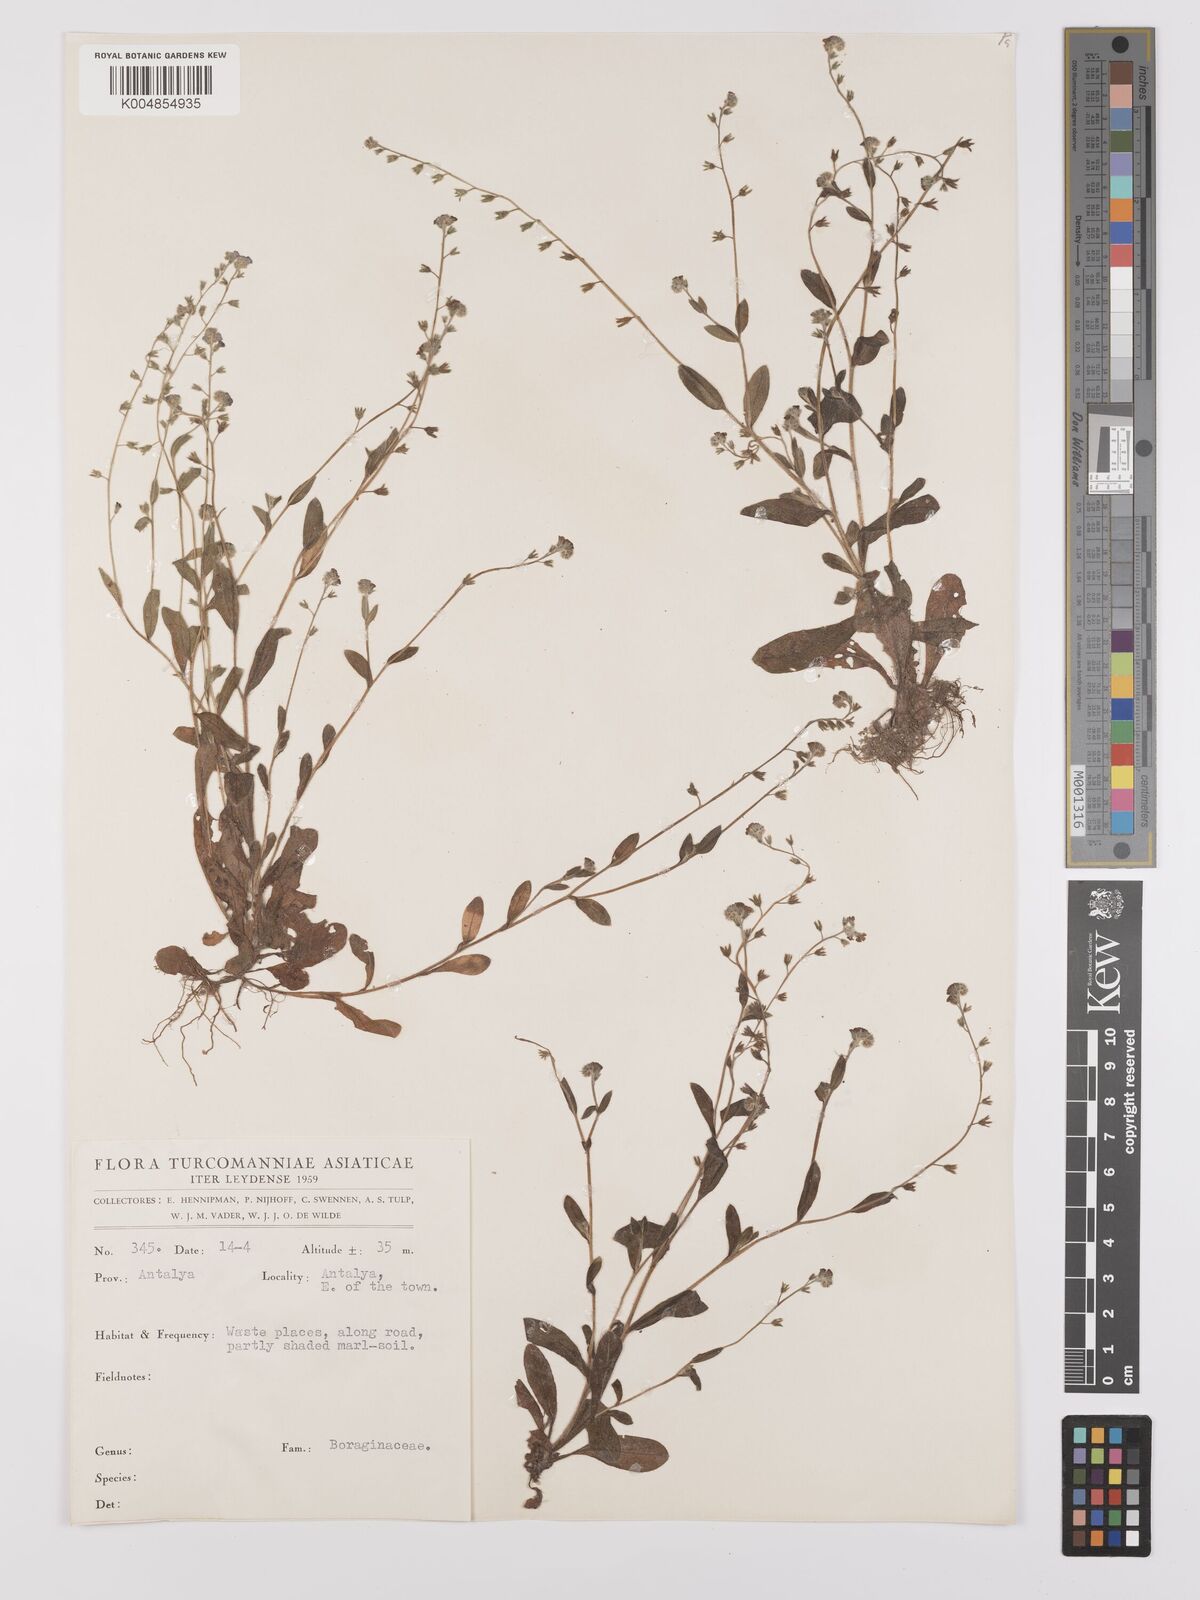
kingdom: Plantae
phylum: Tracheophyta
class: Magnoliopsida
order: Boraginales
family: Boraginaceae
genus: Myosotis
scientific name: Myosotis
